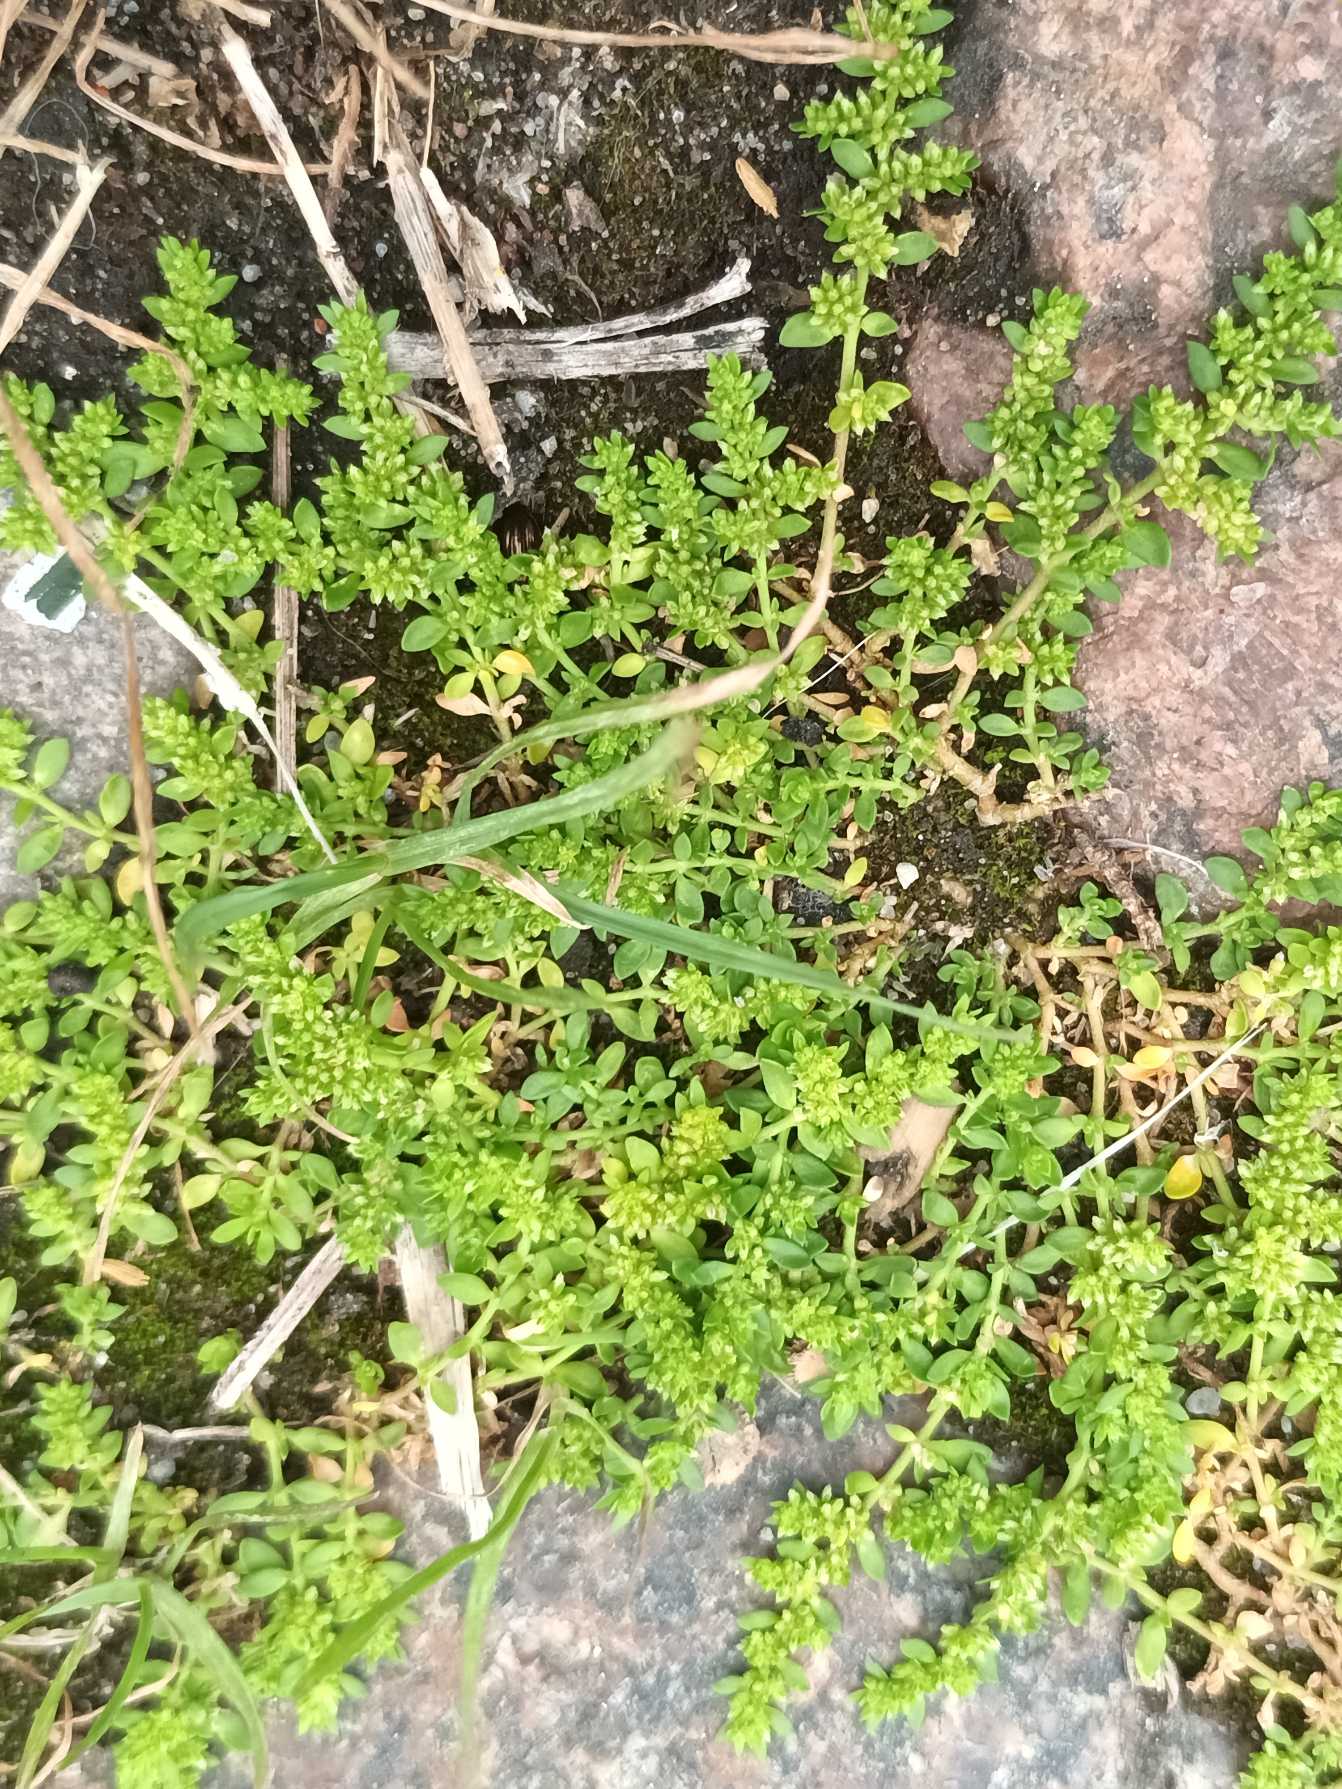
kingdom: Plantae
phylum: Tracheophyta
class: Magnoliopsida
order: Caryophyllales
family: Caryophyllaceae
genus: Herniaria
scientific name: Herniaria glabra
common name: Brudurt
